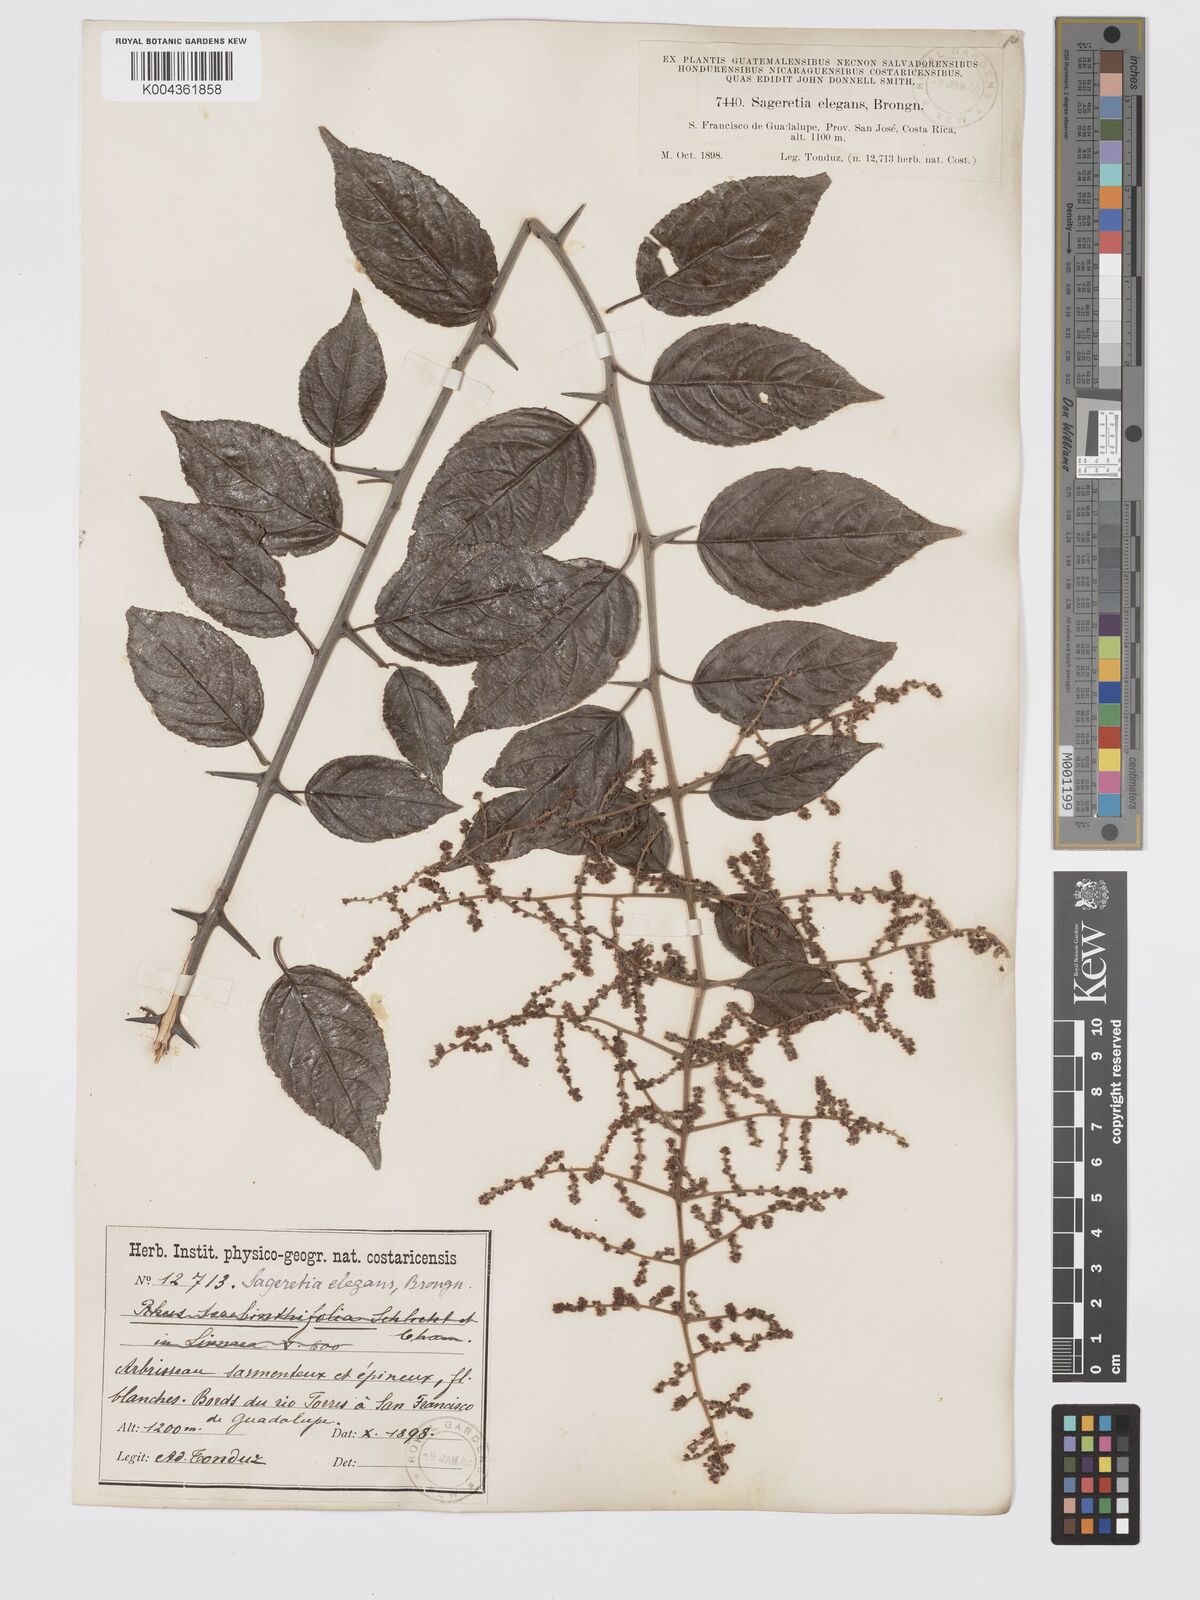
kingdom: Plantae
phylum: Tracheophyta
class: Magnoliopsida
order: Rosales
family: Rhamnaceae
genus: Sageretia
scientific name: Sageretia elegans
